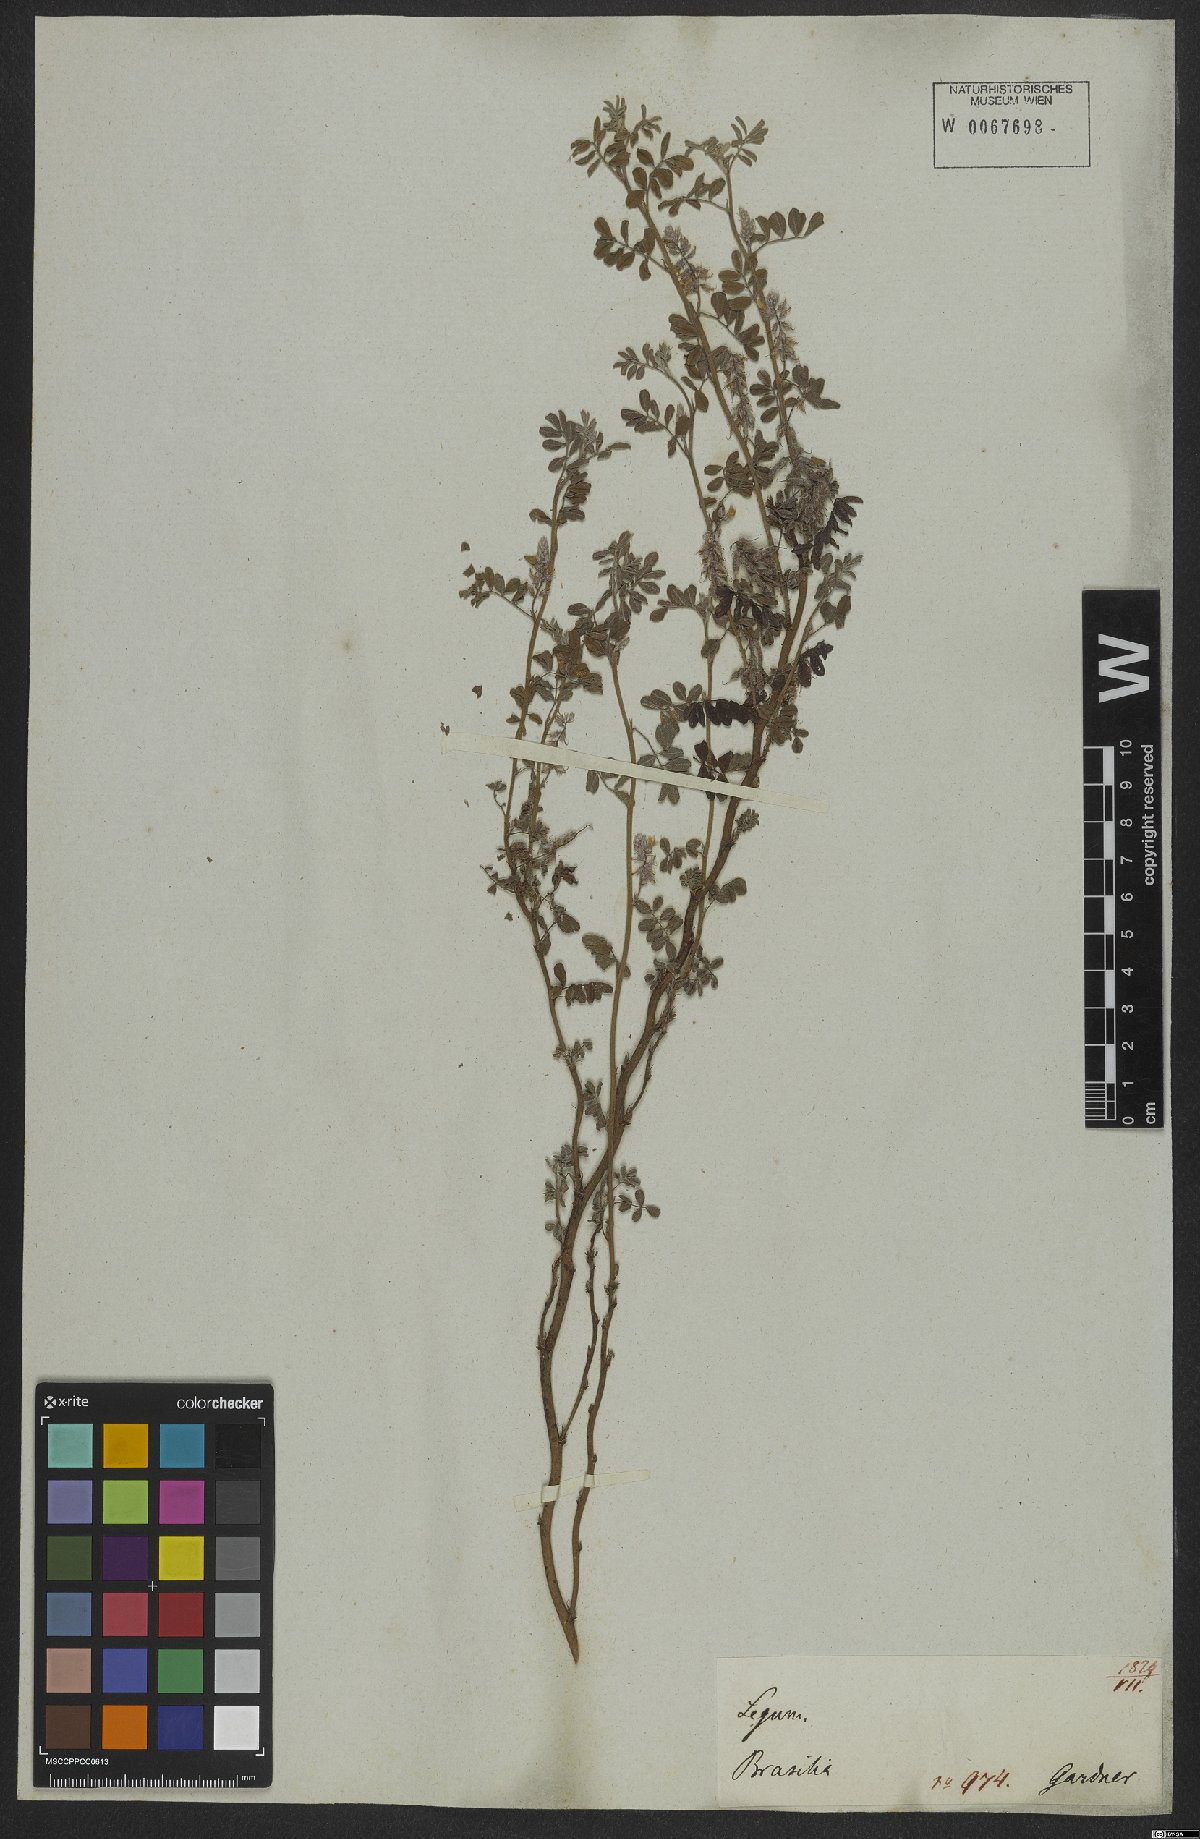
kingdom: Plantae
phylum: Tracheophyta
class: Magnoliopsida
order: Fabales
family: Fabaceae
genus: Indigofera
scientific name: Indigofera microcarpa
